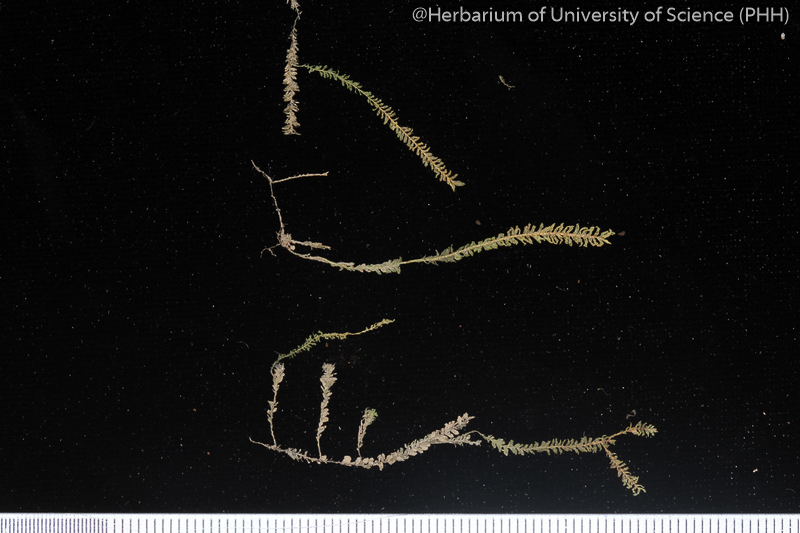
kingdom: Plantae
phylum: Bryophyta
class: Bryopsida
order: Hypnales
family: Neckeraceae
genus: Pseudoparaphysanthus
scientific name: Pseudoparaphysanthus moutieri
